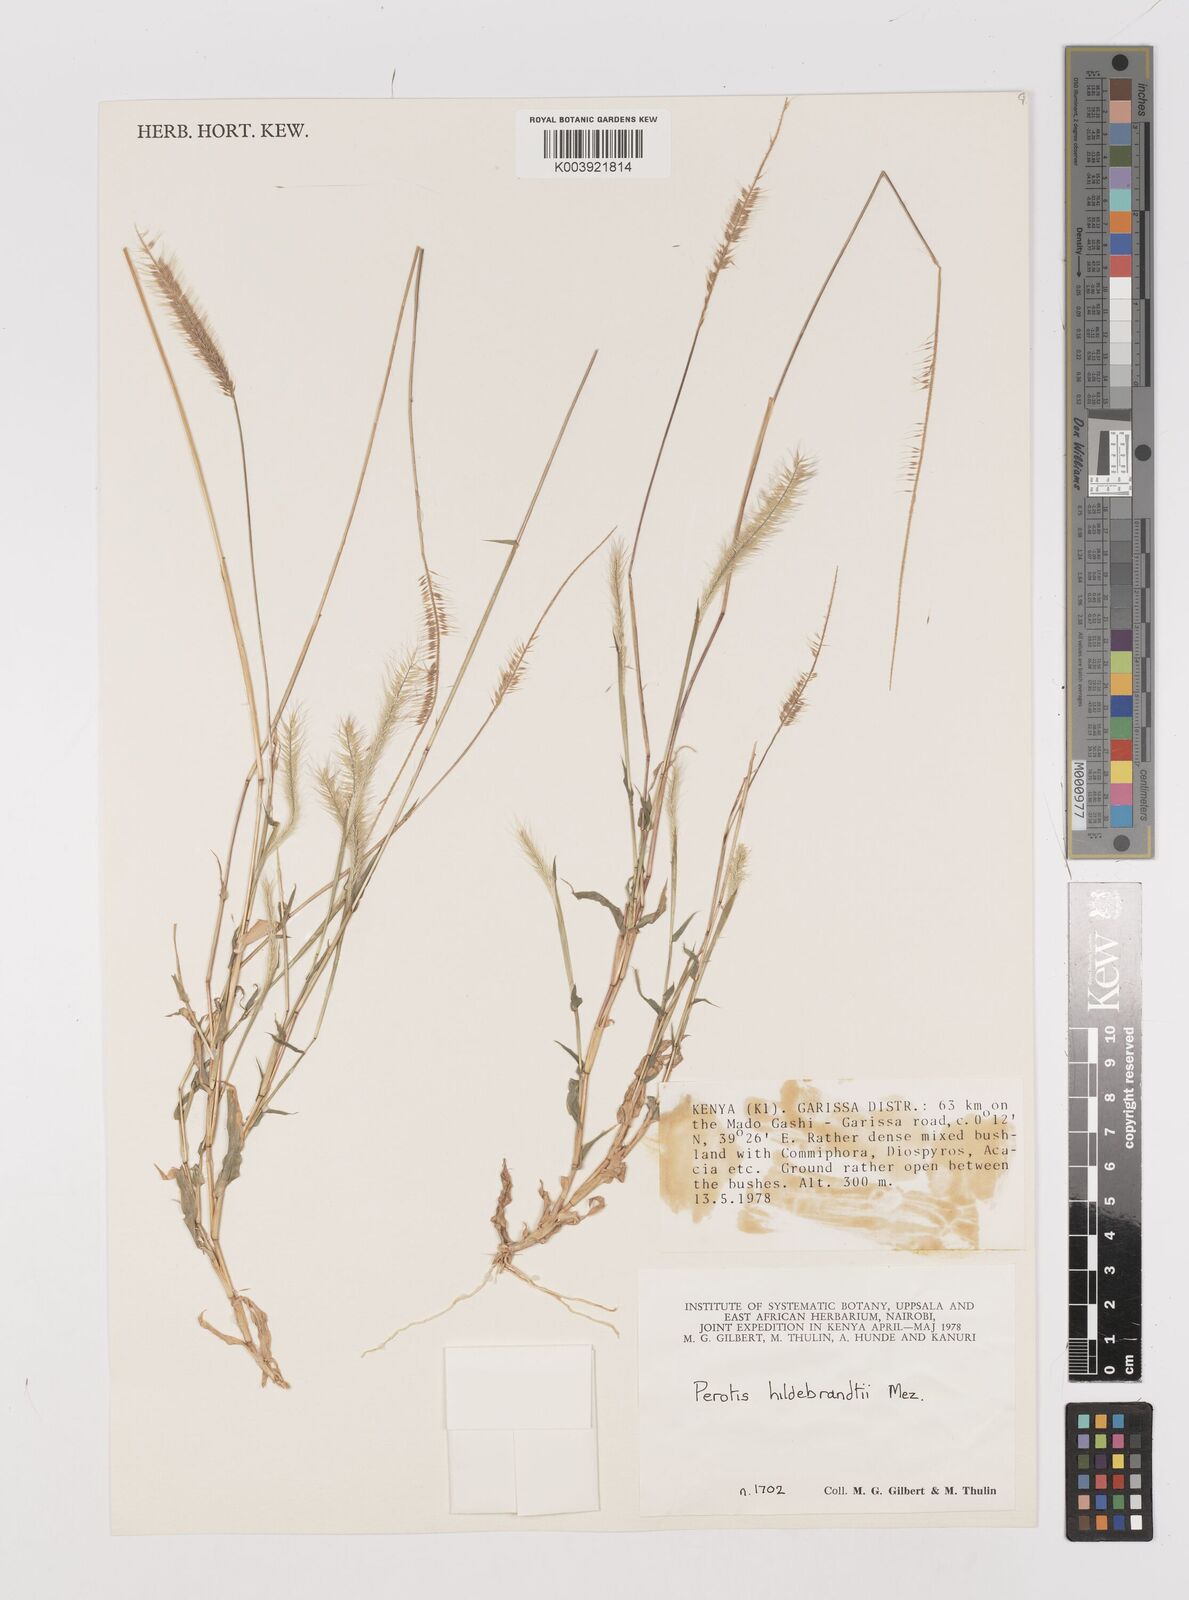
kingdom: Plantae
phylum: Tracheophyta
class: Liliopsida
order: Poales
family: Poaceae
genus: Perotis
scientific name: Perotis pilosa
